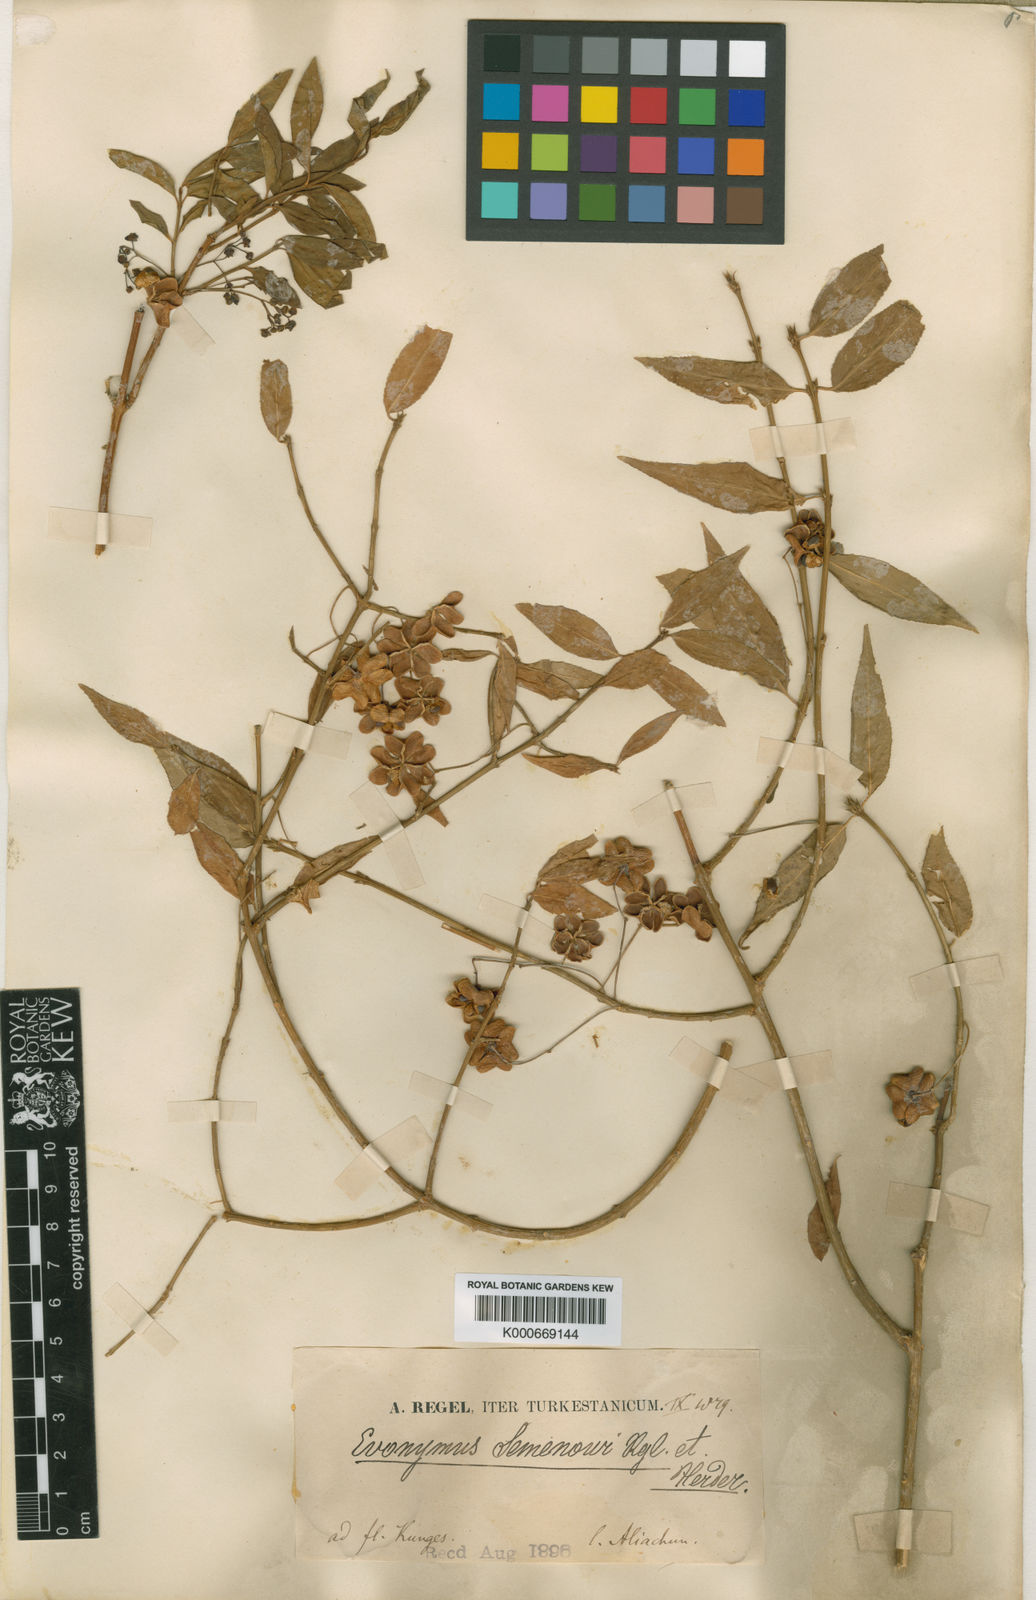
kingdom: Plantae
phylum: Tracheophyta
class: Magnoliopsida
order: Celastrales
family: Celastraceae
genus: Euonymus
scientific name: Euonymus semenovii
